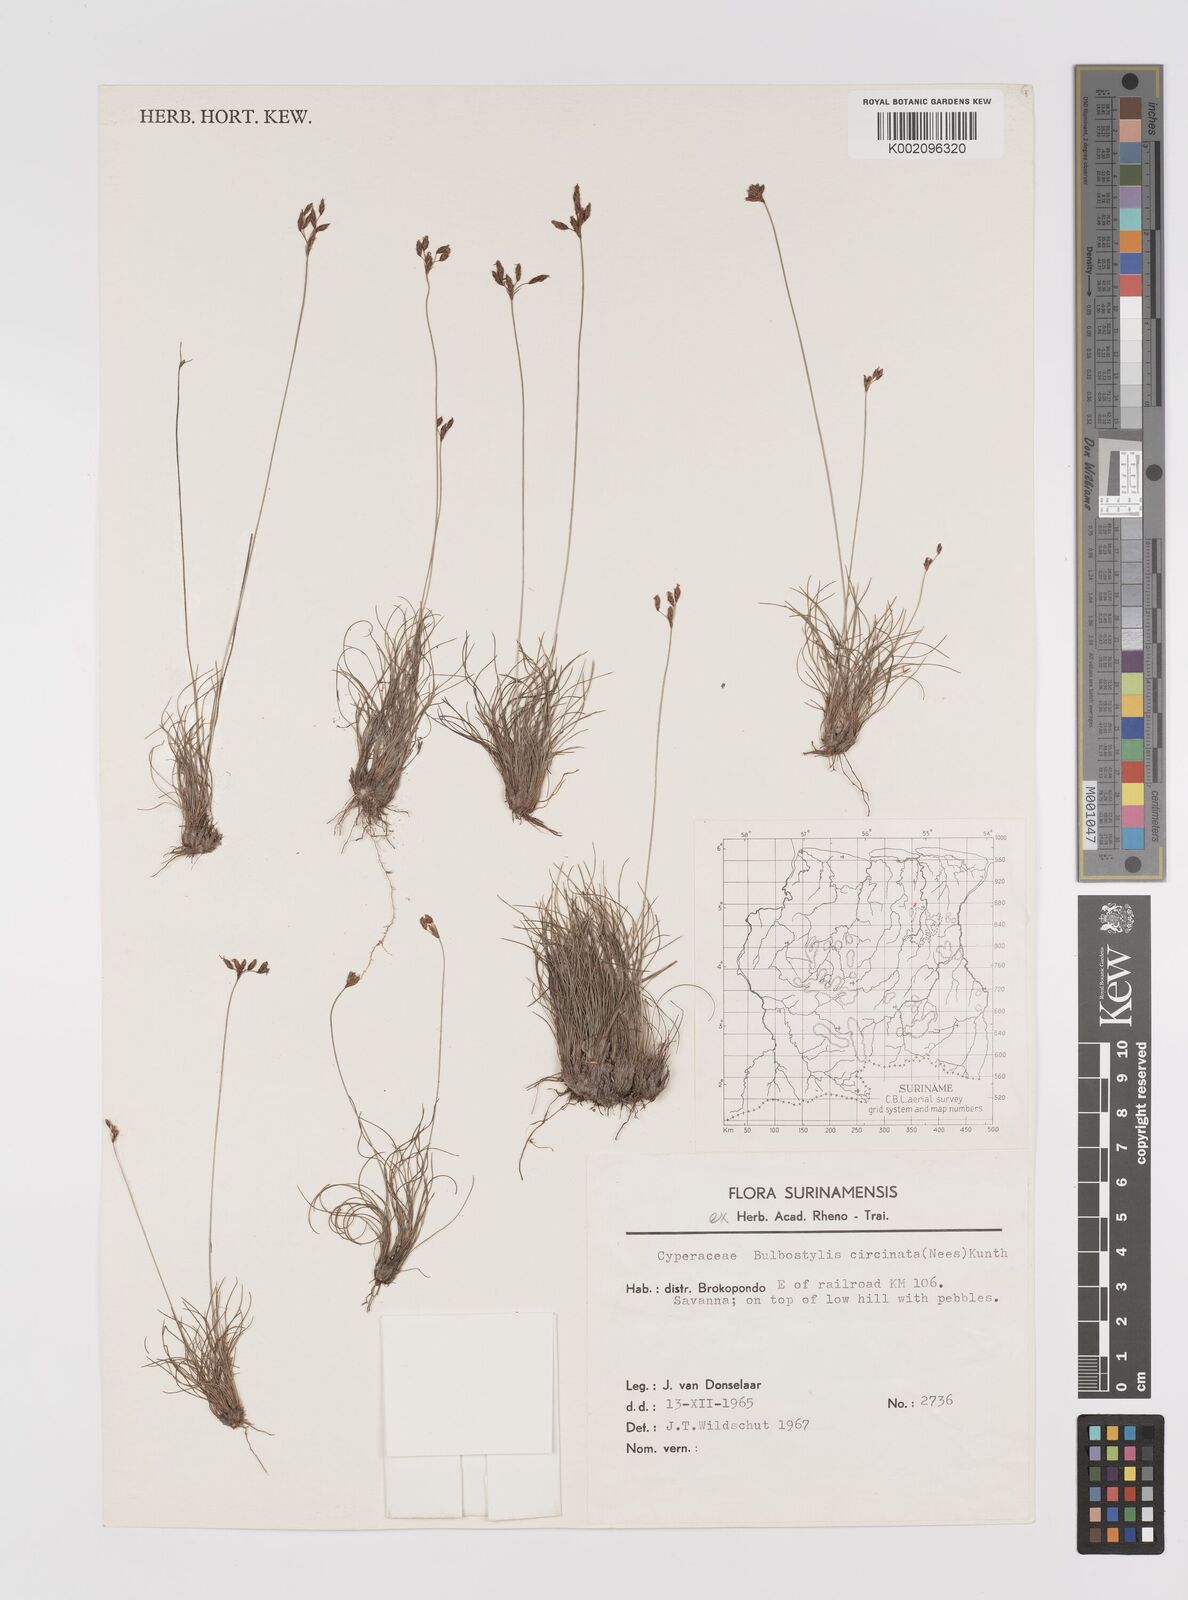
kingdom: Plantae
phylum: Tracheophyta
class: Liliopsida
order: Poales
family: Cyperaceae
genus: Bulbostylis
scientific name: Bulbostylis circinata
